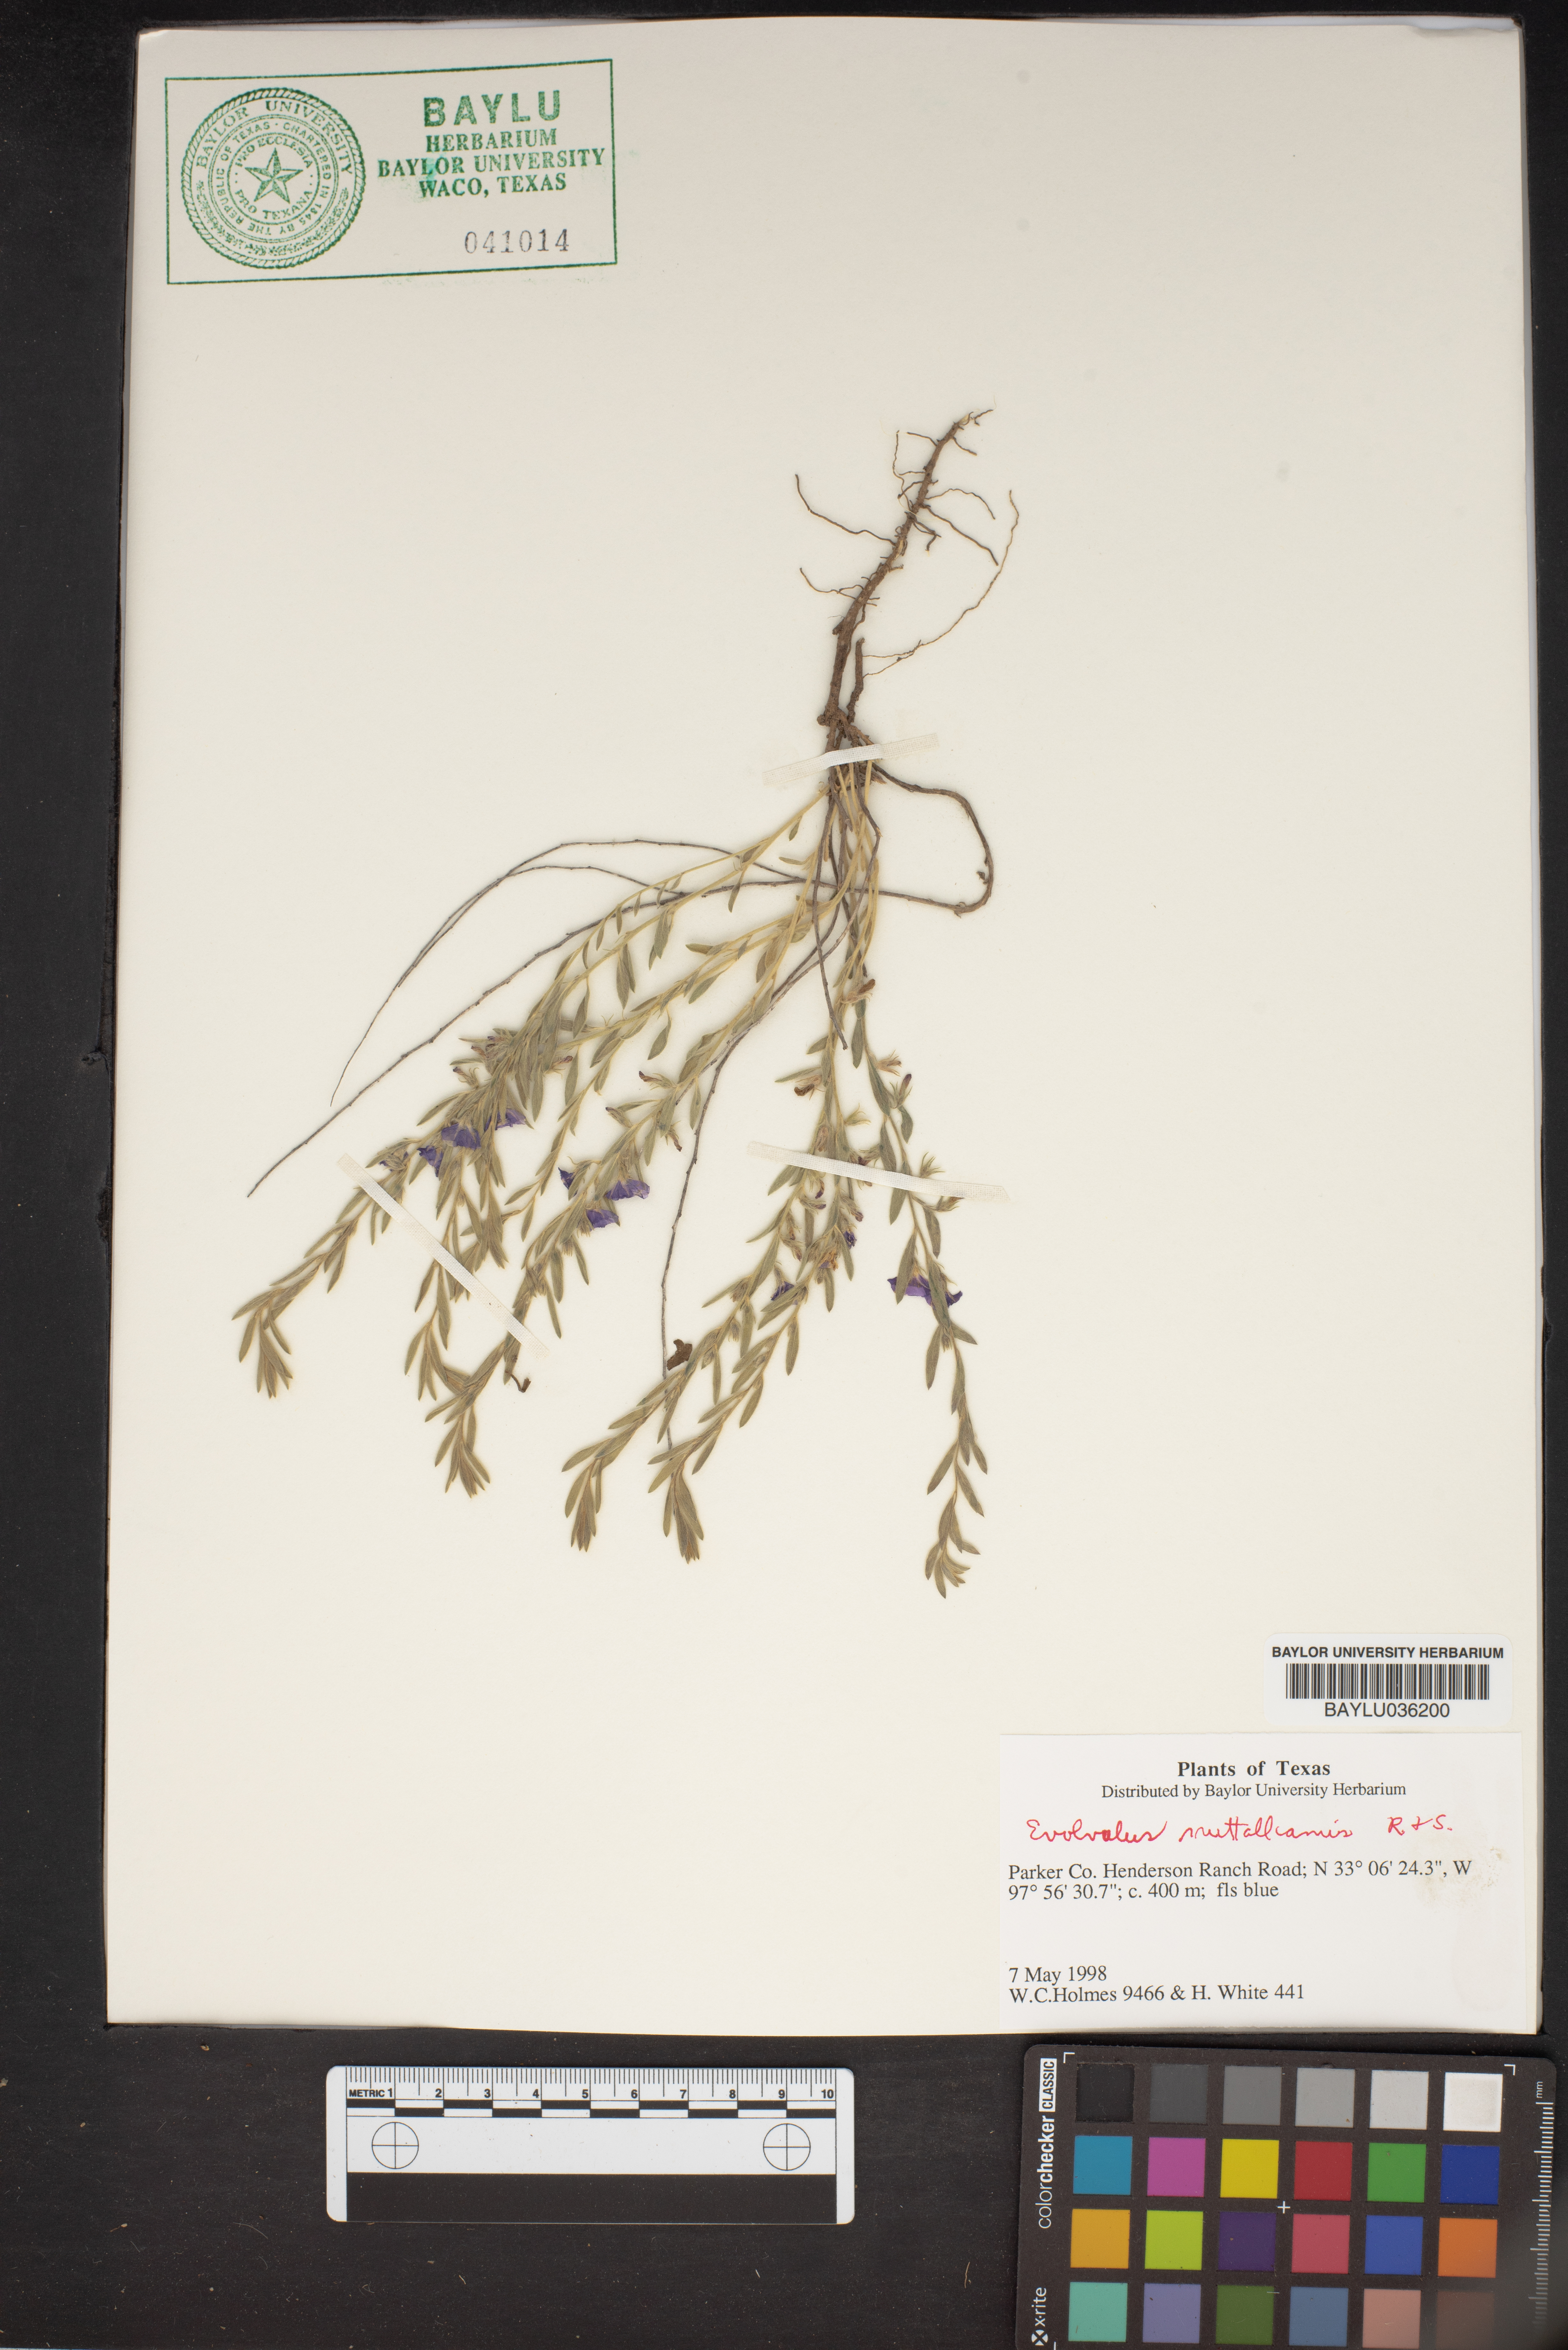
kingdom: Plantae
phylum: Tracheophyta
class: Magnoliopsida
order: Solanales
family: Convolvulaceae
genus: Evolvulus
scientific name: Evolvulus nuttallianus
